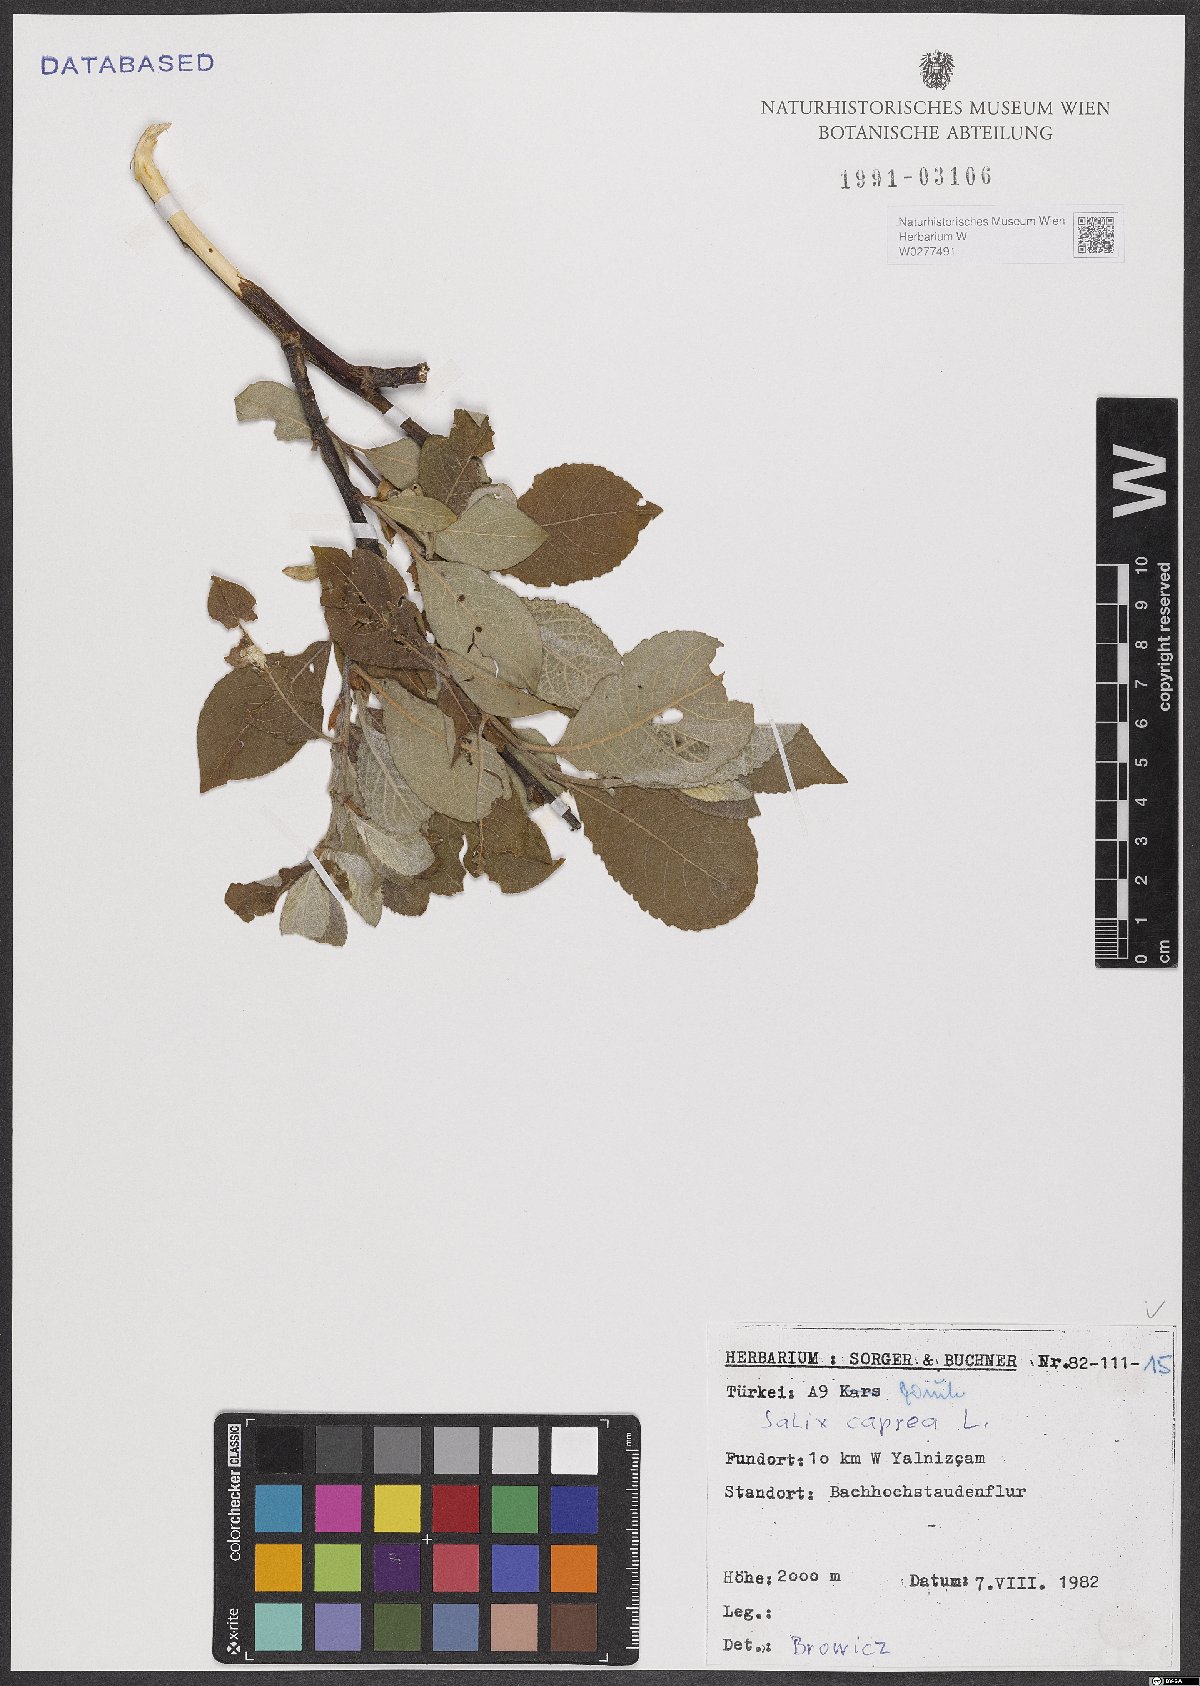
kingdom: Plantae
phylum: Tracheophyta
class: Magnoliopsida
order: Malpighiales
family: Salicaceae
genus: Salix
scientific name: Salix caprea
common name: Goat willow
